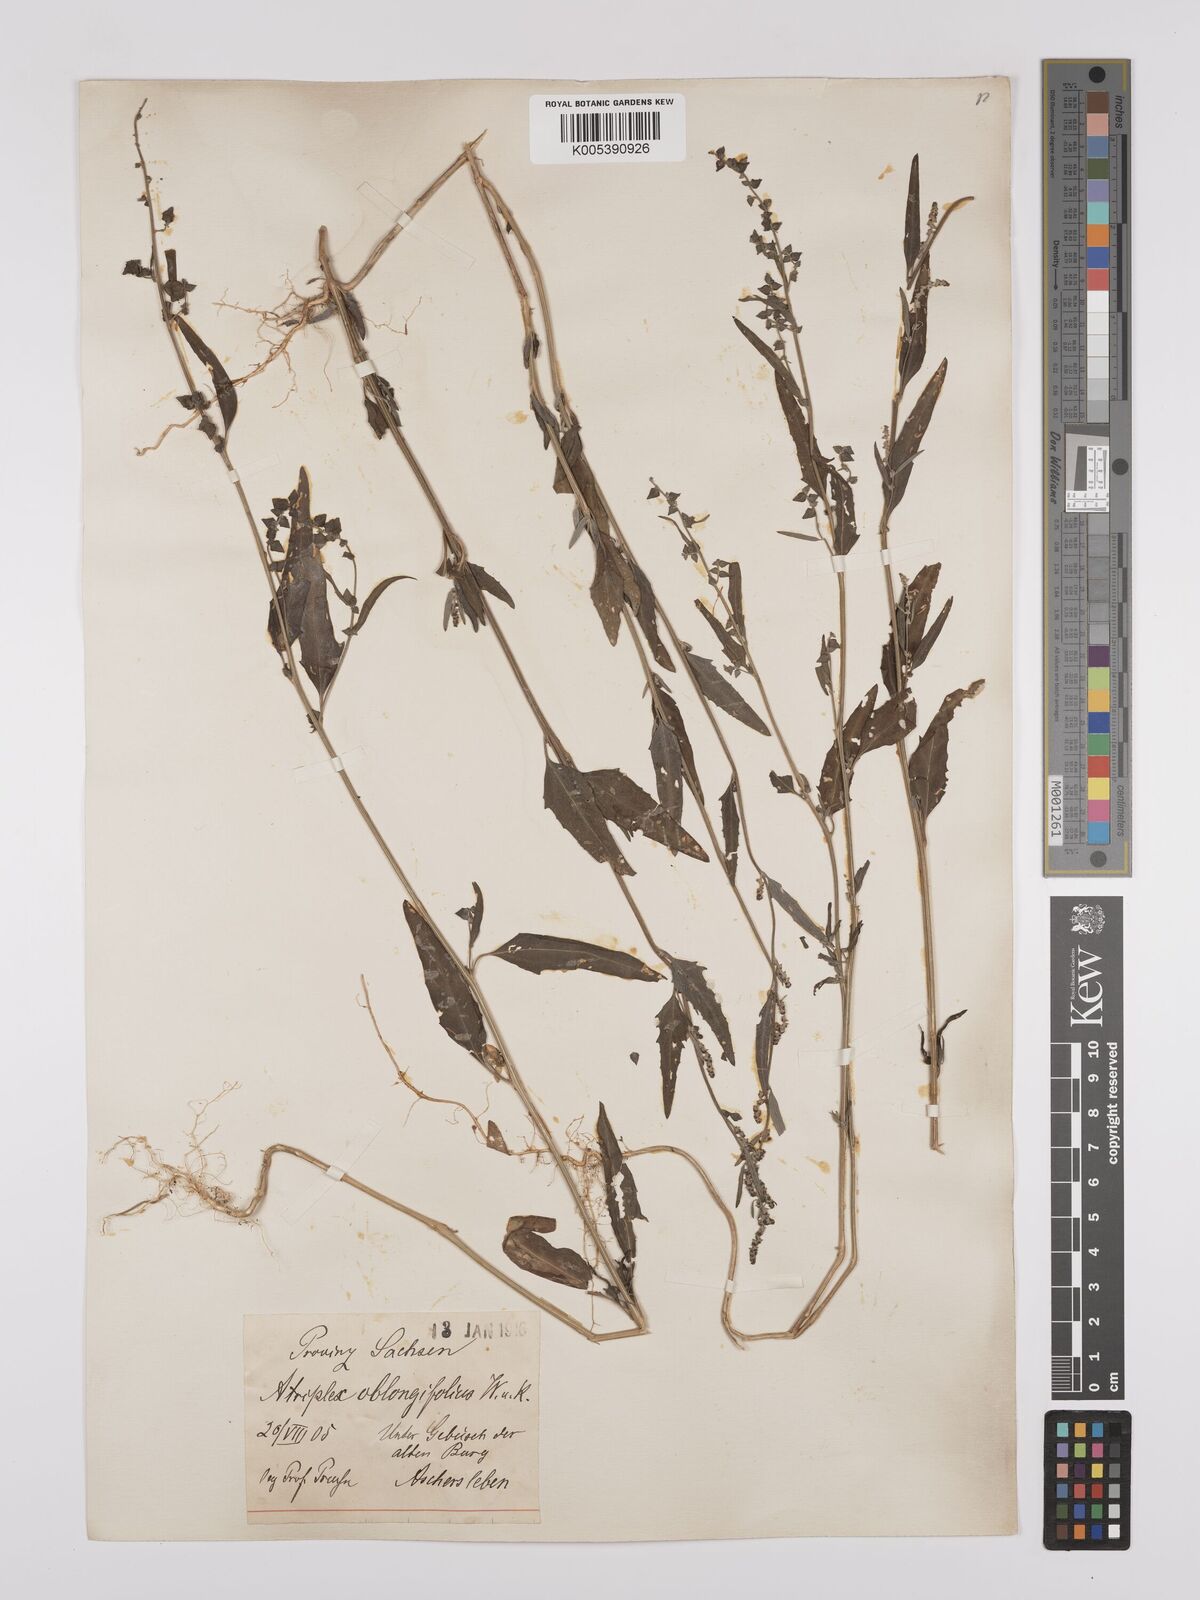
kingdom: Plantae
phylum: Tracheophyta
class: Magnoliopsida
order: Caryophyllales
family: Amaranthaceae
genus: Atriplex
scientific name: Atriplex
